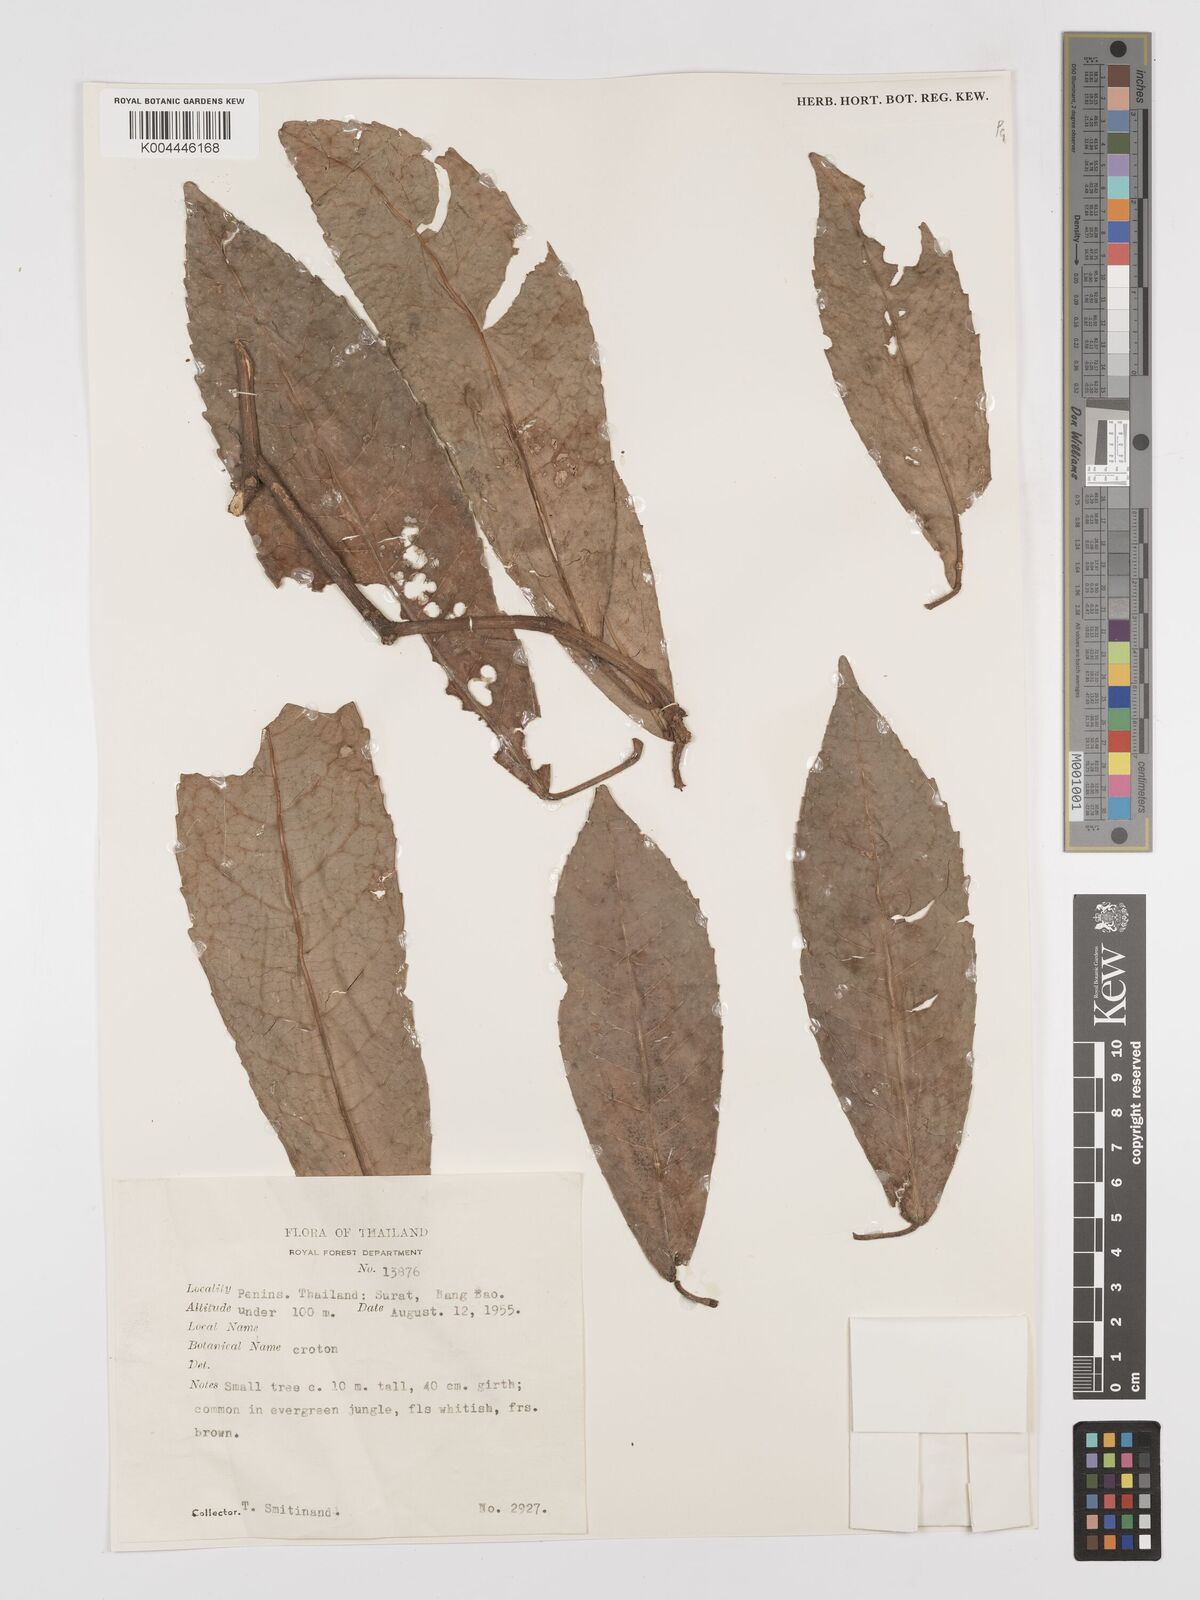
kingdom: Plantae
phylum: Tracheophyta
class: Magnoliopsida
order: Malpighiales
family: Euphorbiaceae
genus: Croton
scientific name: Croton delpyi
